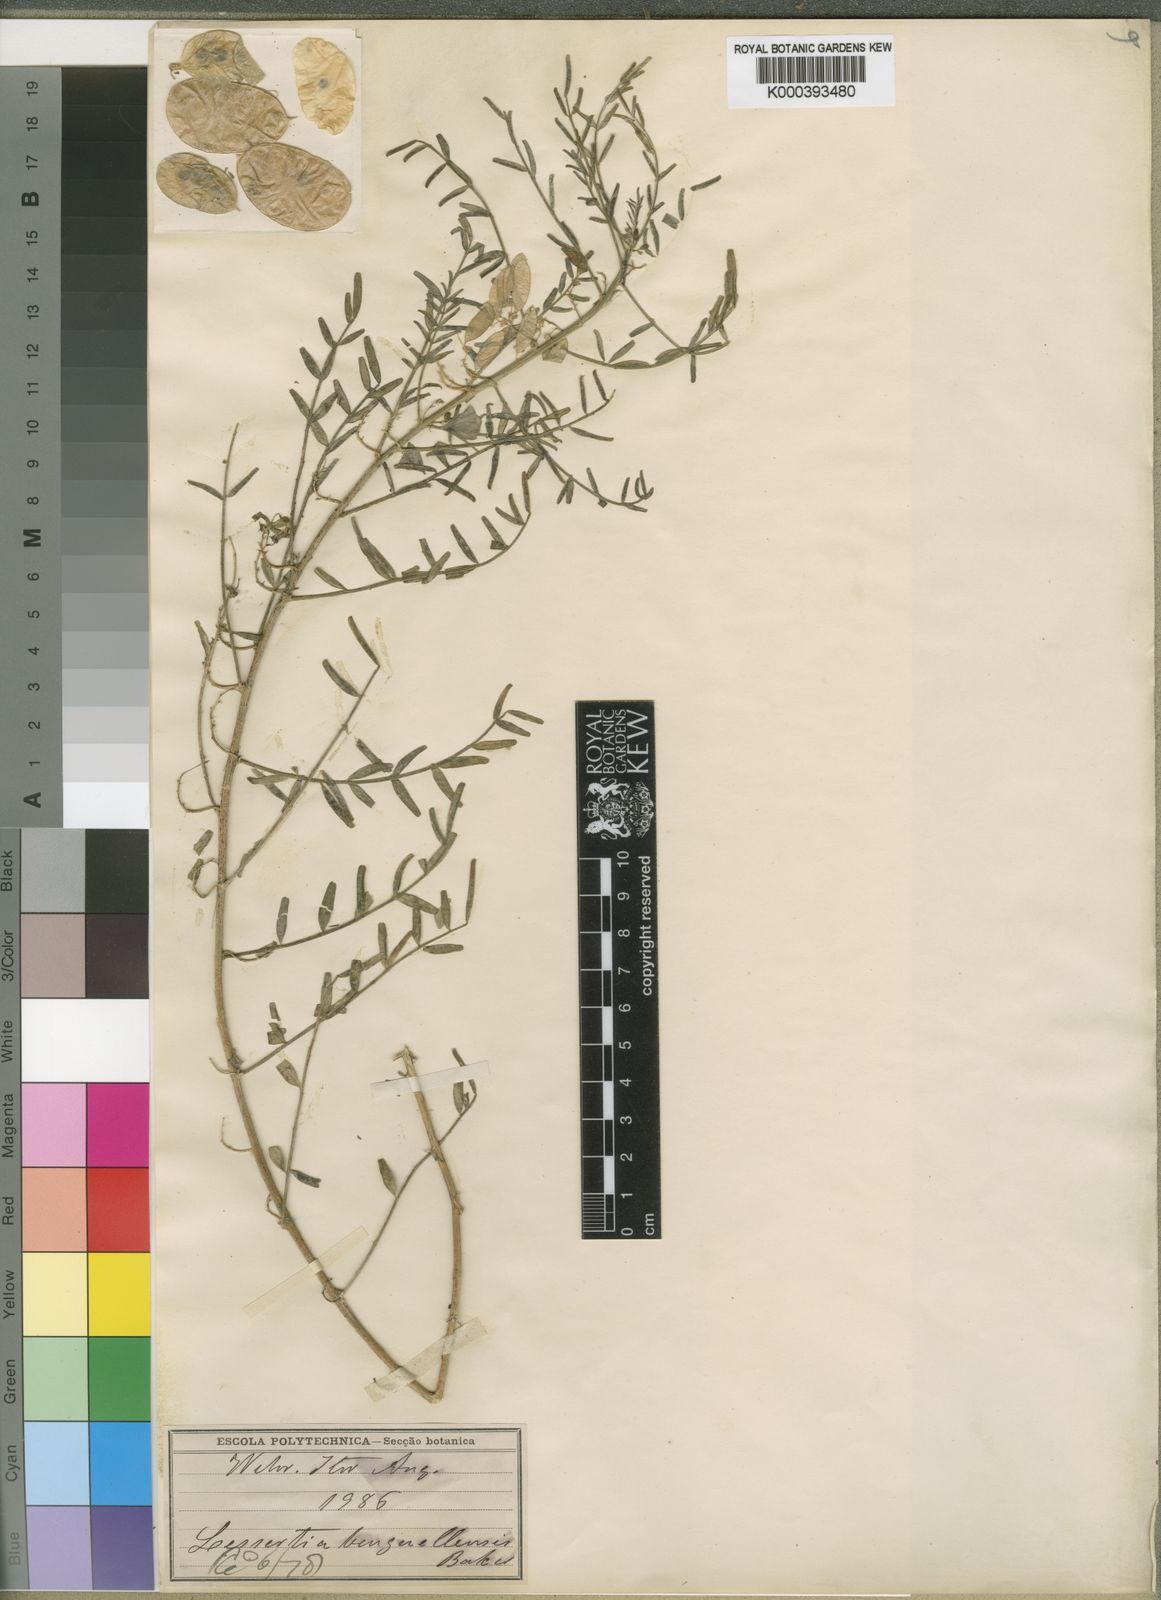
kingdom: Plantae
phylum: Tracheophyta
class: Magnoliopsida
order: Fabales
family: Fabaceae
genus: Lessertia
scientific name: Lessertia benguellensis
